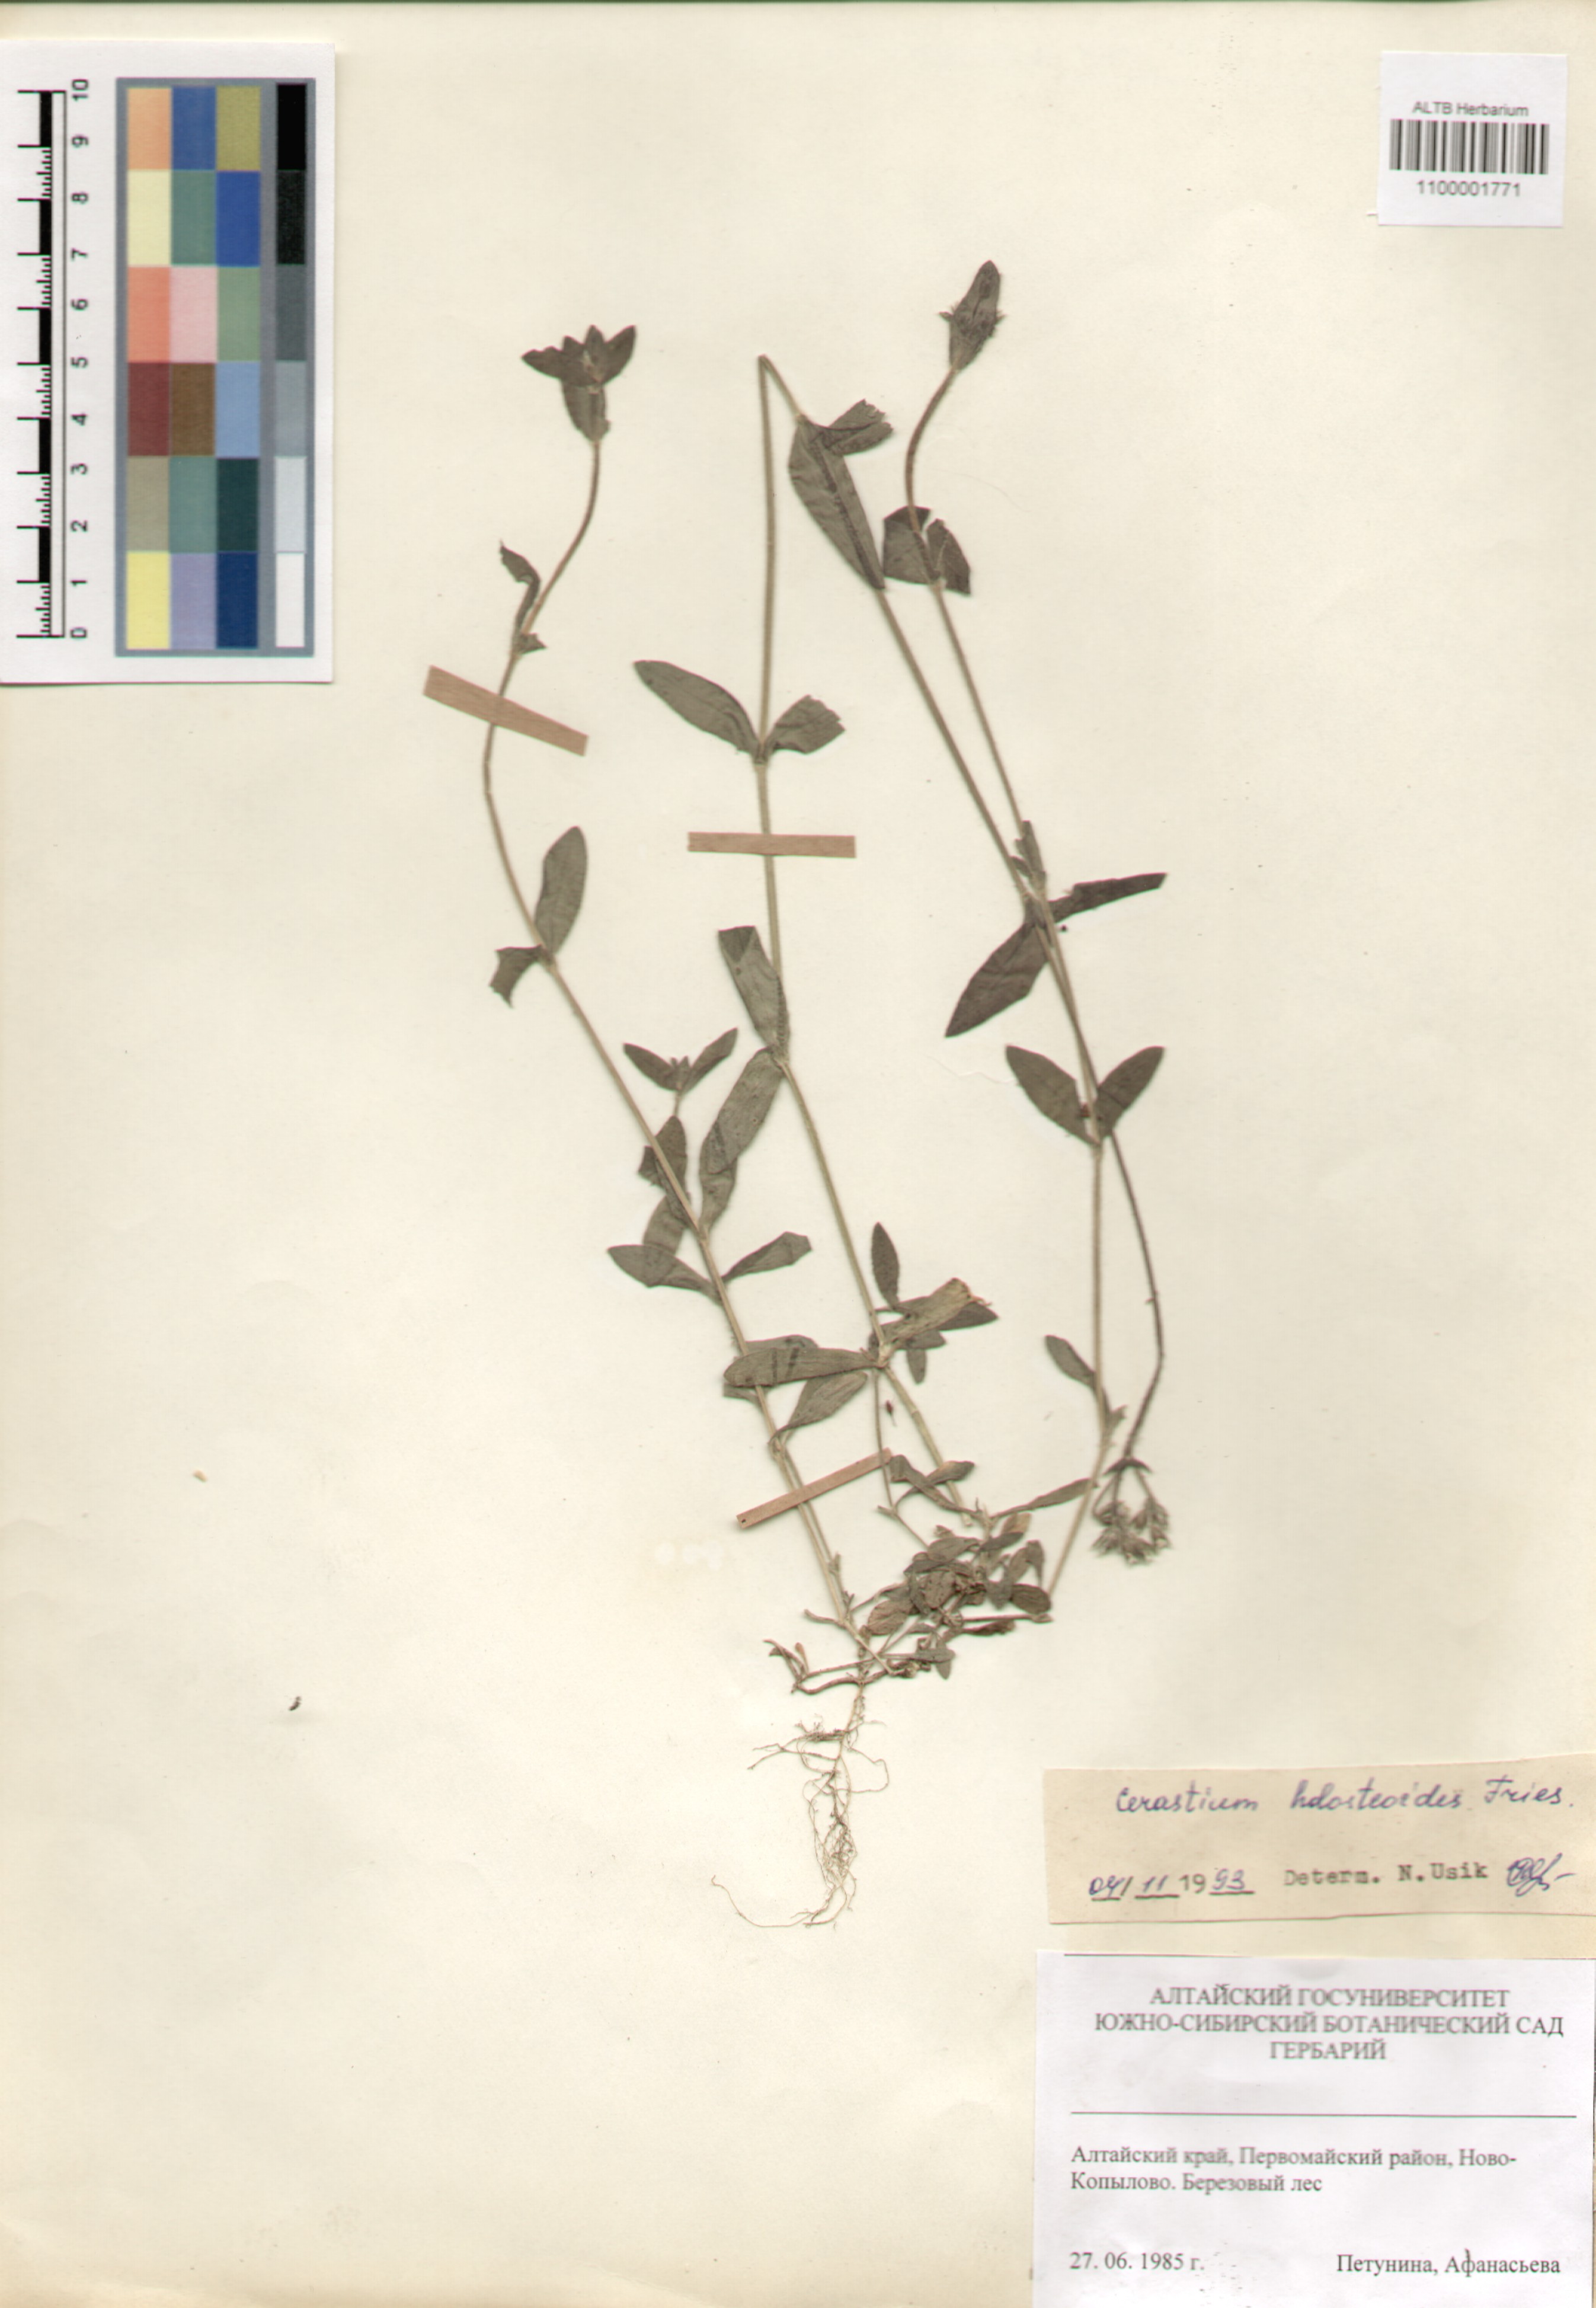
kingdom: Plantae
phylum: Tracheophyta
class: Magnoliopsida
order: Caryophyllales
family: Caryophyllaceae
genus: Cerastium
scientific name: Cerastium holosteoides
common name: Big chickweed
